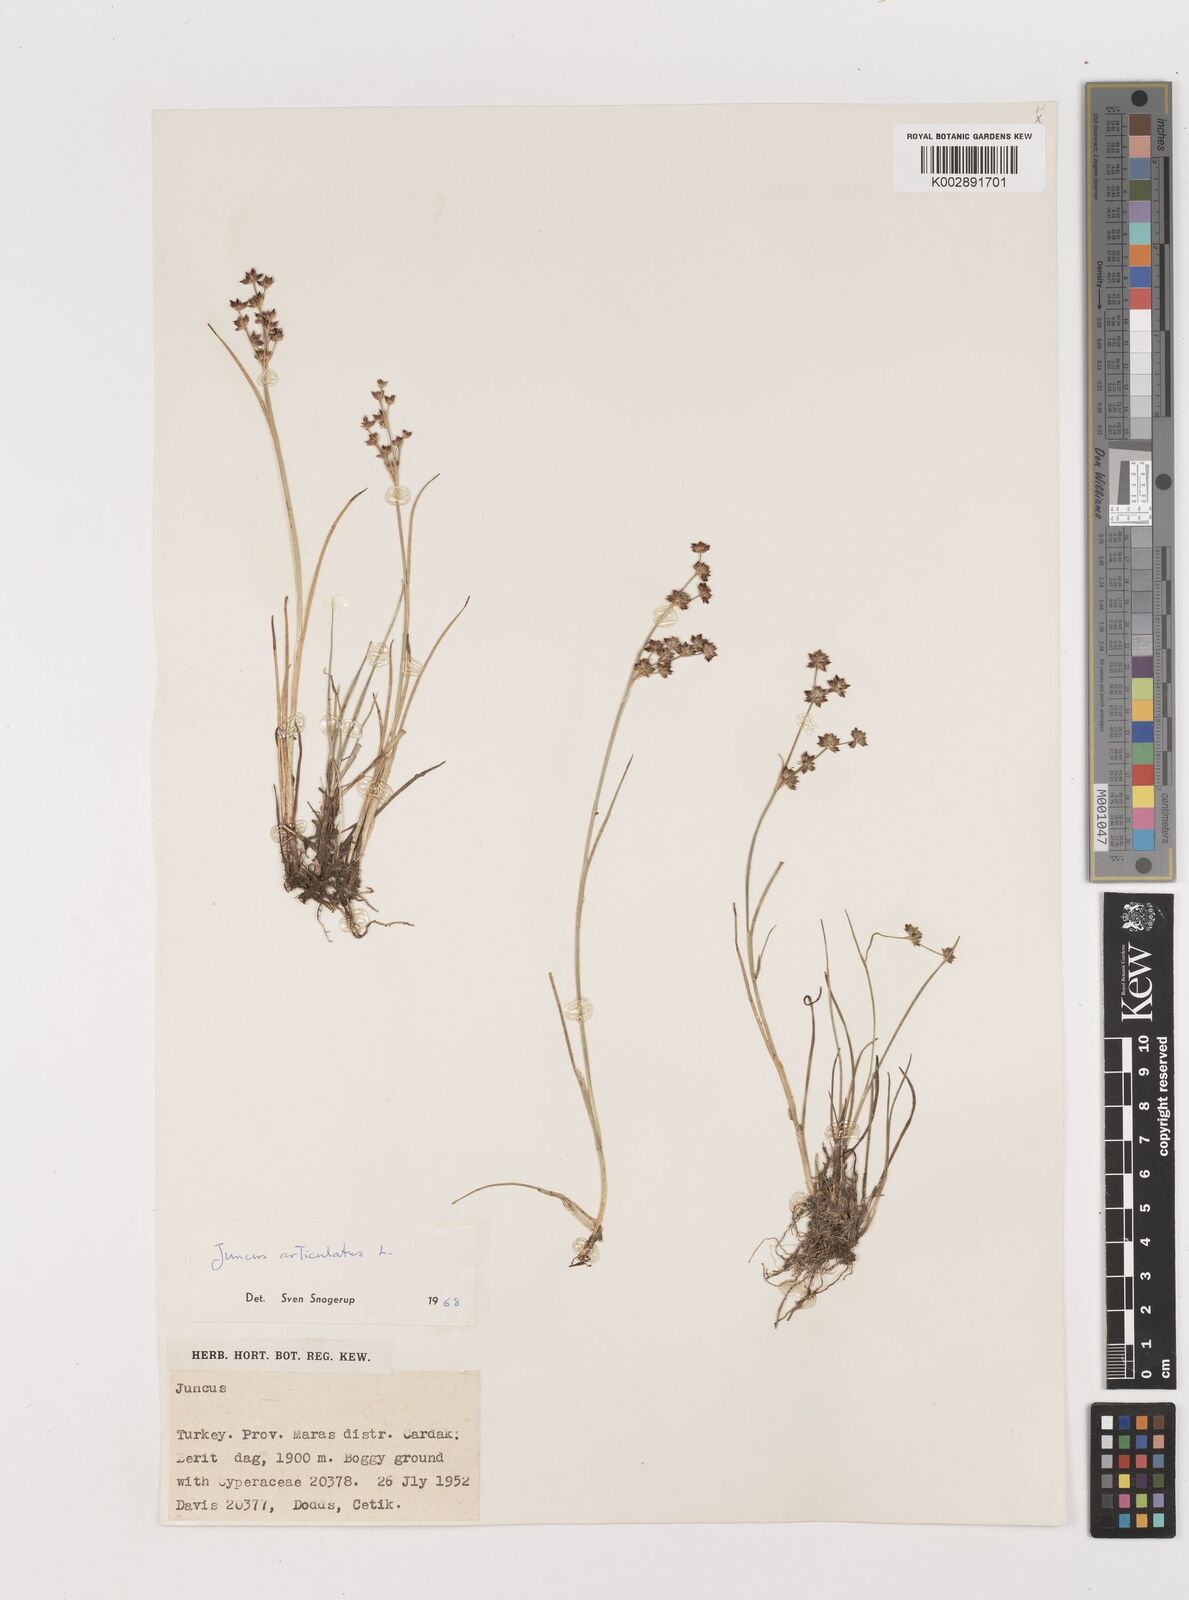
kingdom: Plantae
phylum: Tracheophyta
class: Liliopsida
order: Poales
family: Juncaceae
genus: Juncus
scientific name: Juncus articulatus
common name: Jointed rush
